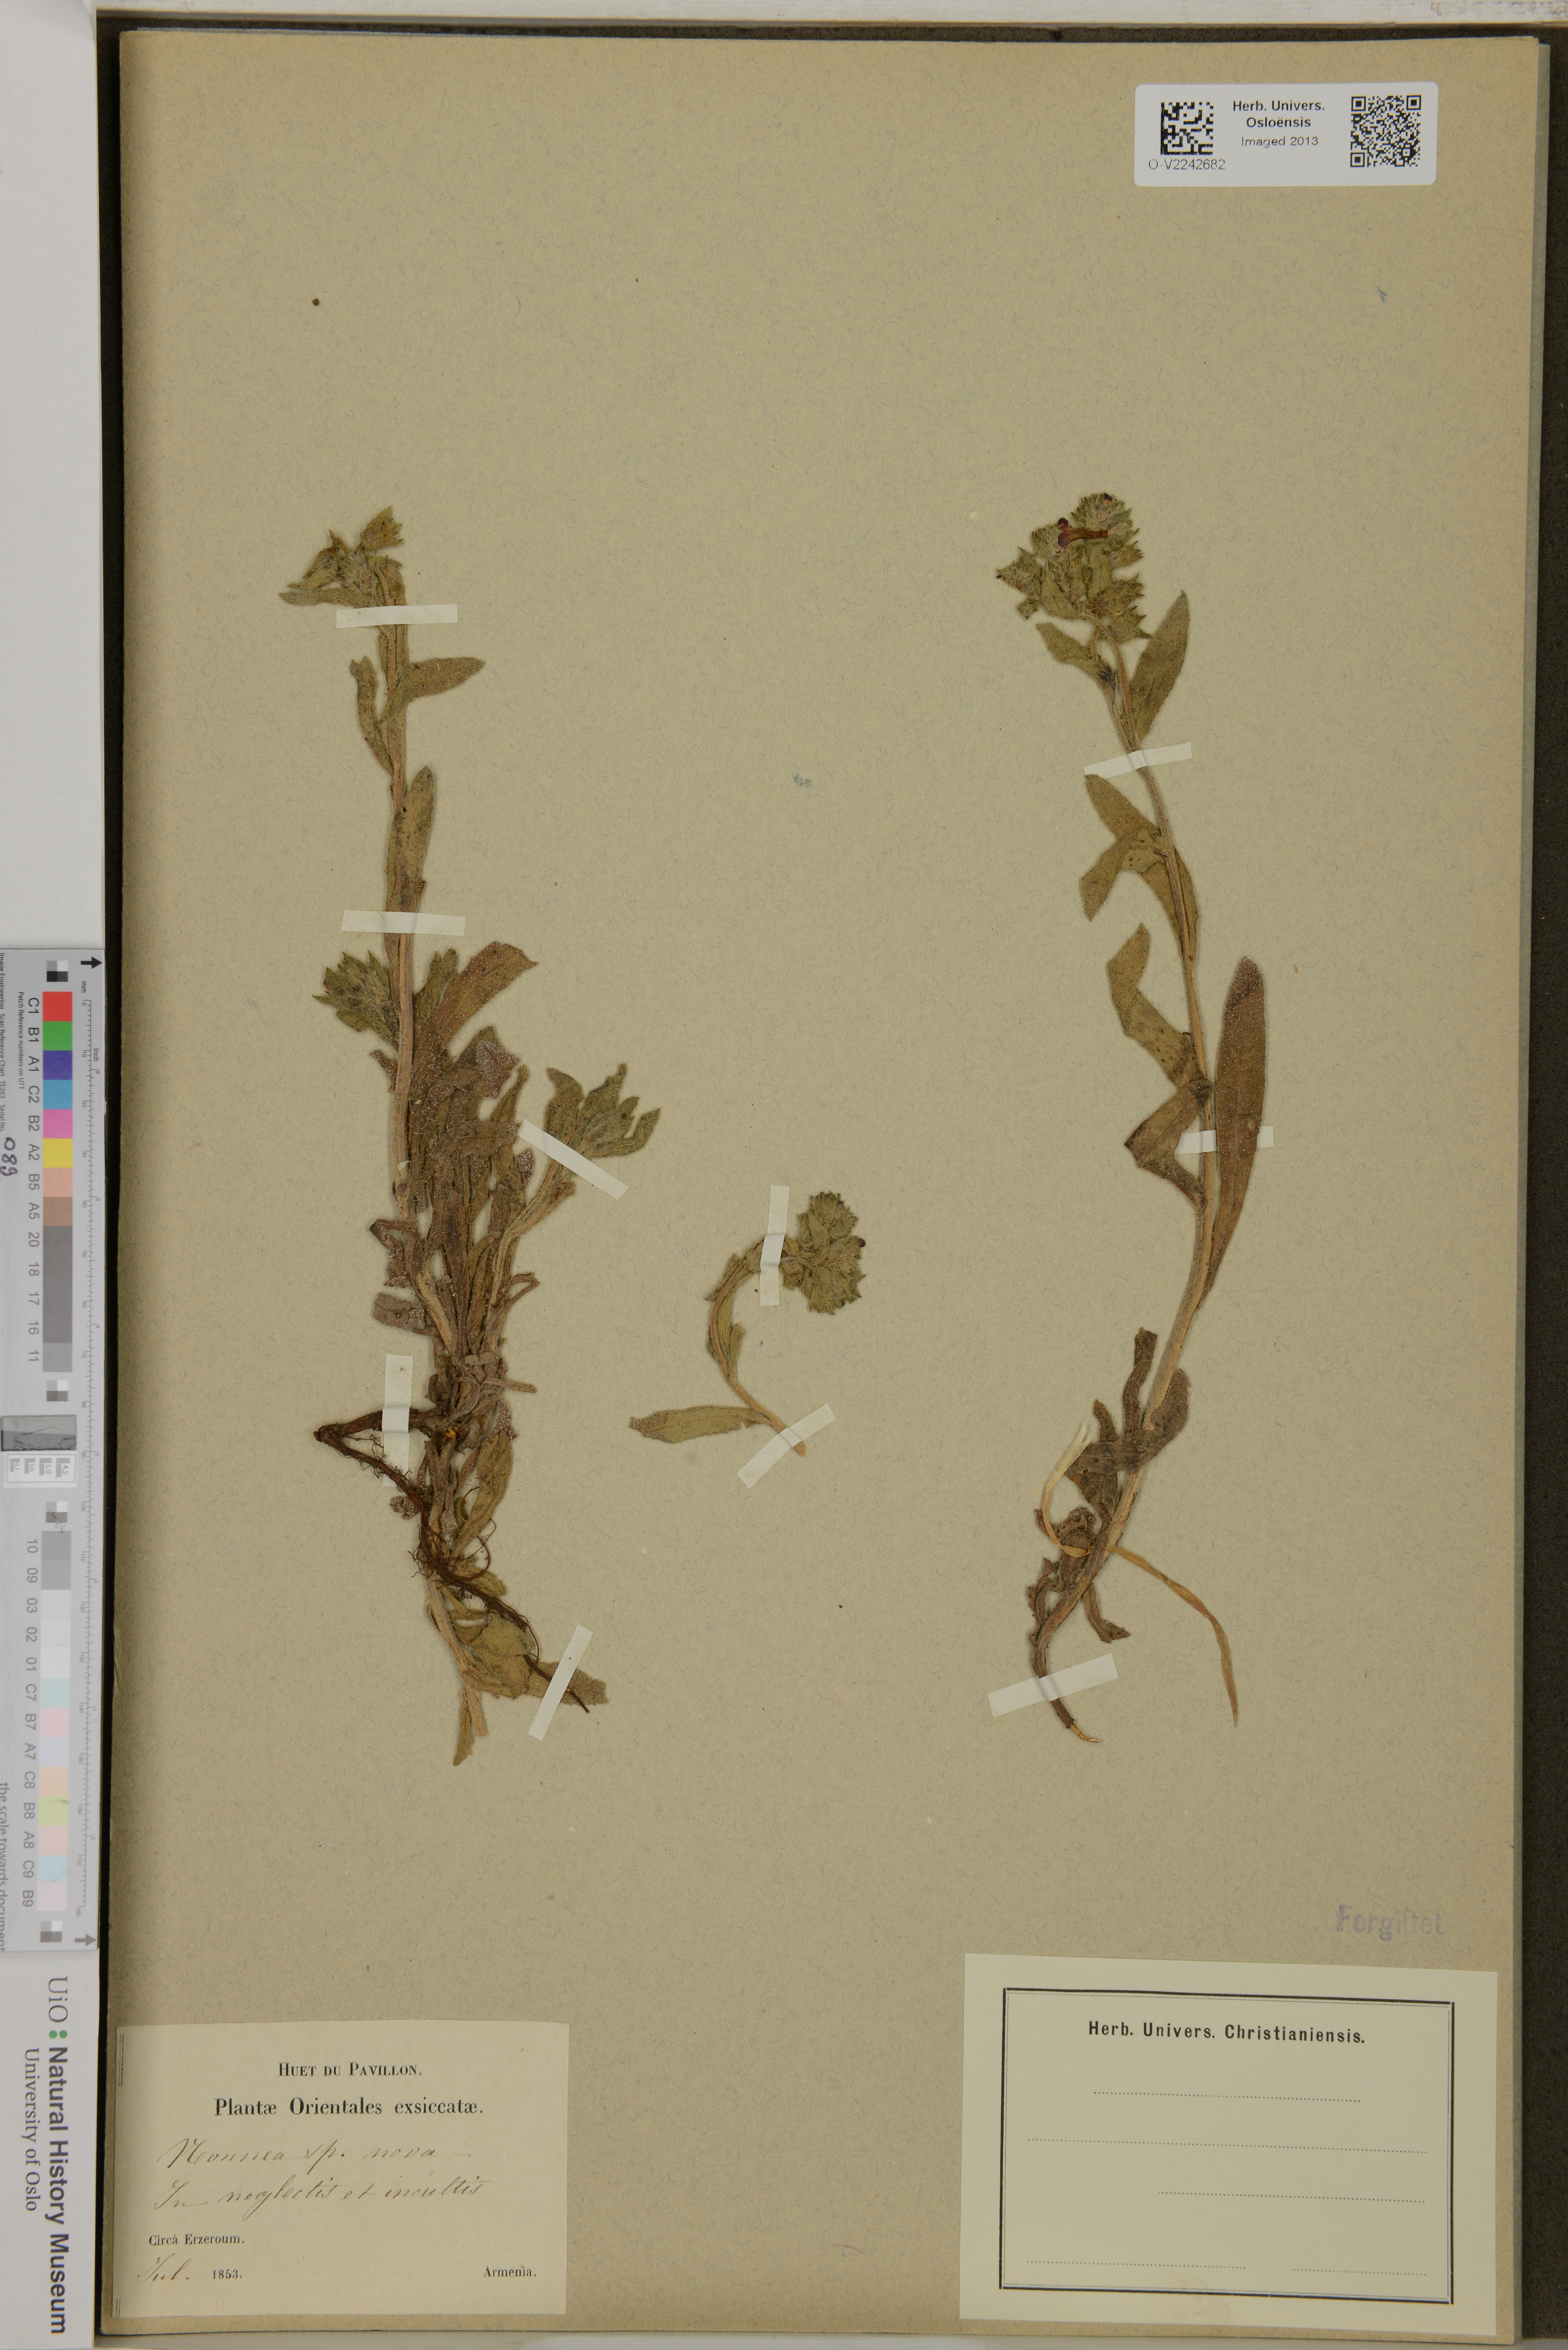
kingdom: Plantae
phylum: Tracheophyta
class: Magnoliopsida
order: Boraginales
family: Boraginaceae
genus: Nonea
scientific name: Nonea
